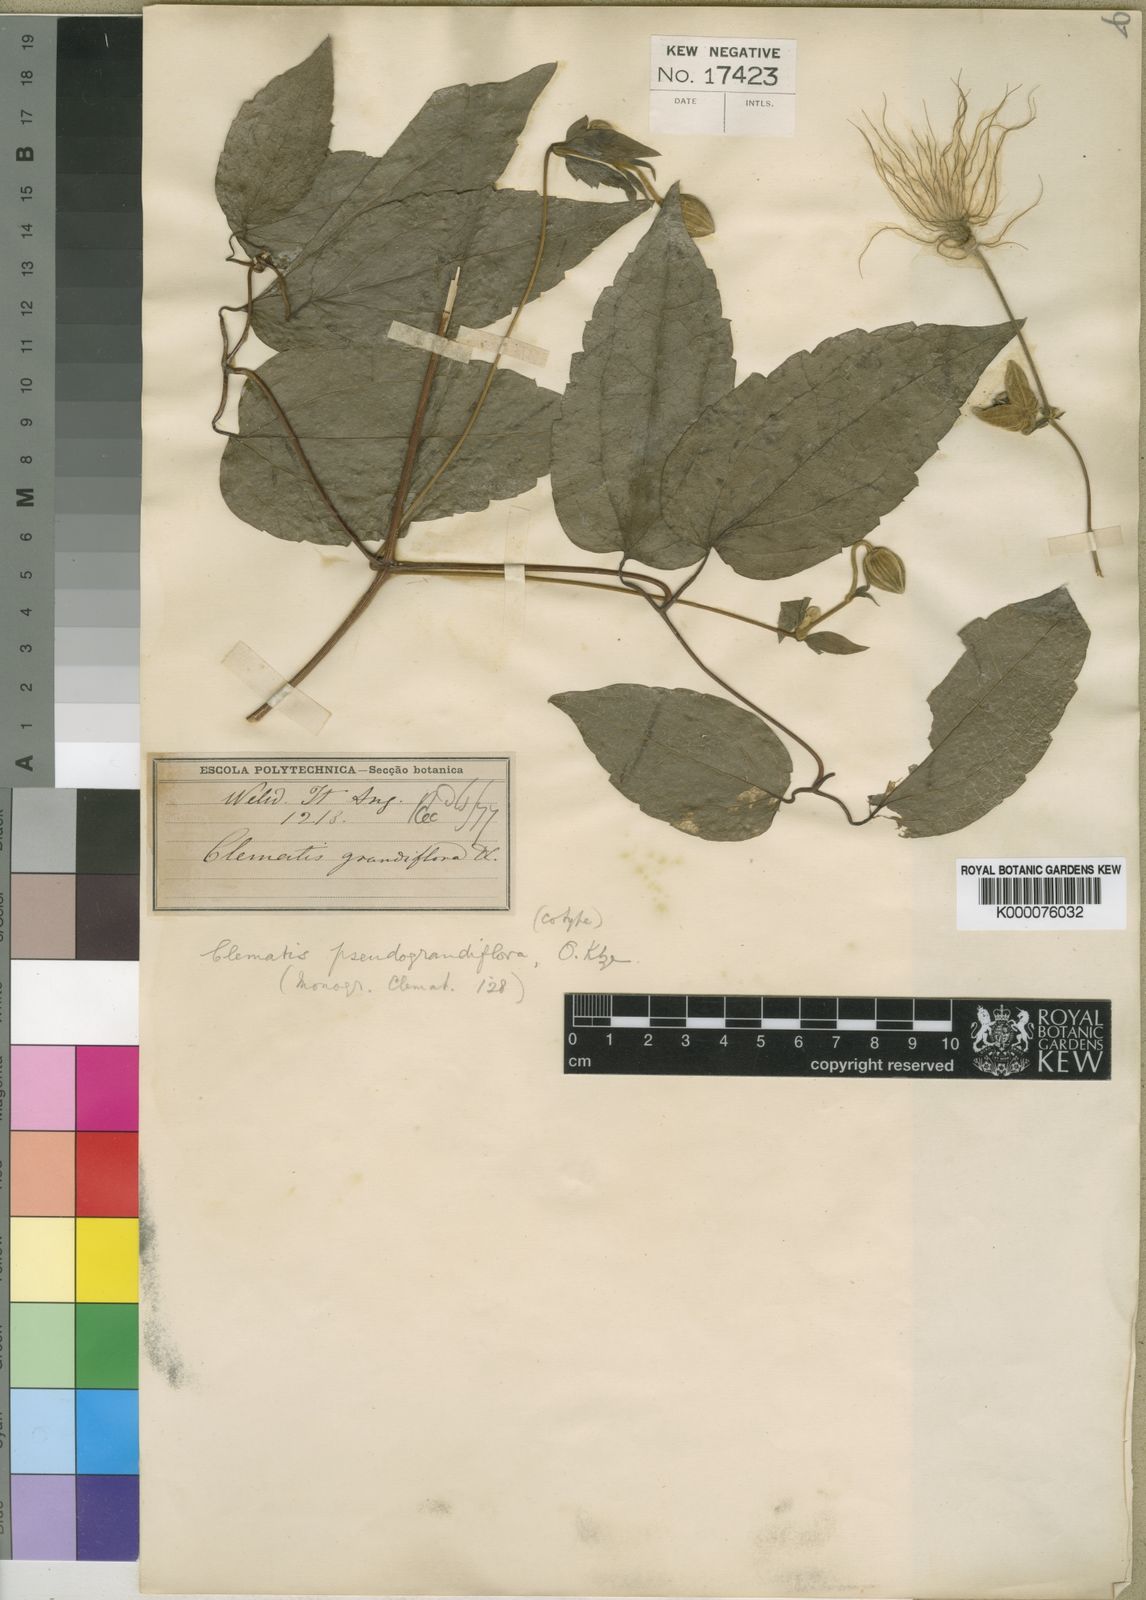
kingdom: Plantae
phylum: Tracheophyta
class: Magnoliopsida
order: Ranunculales
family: Ranunculaceae
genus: Clematis
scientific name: Clematis grandiflora
